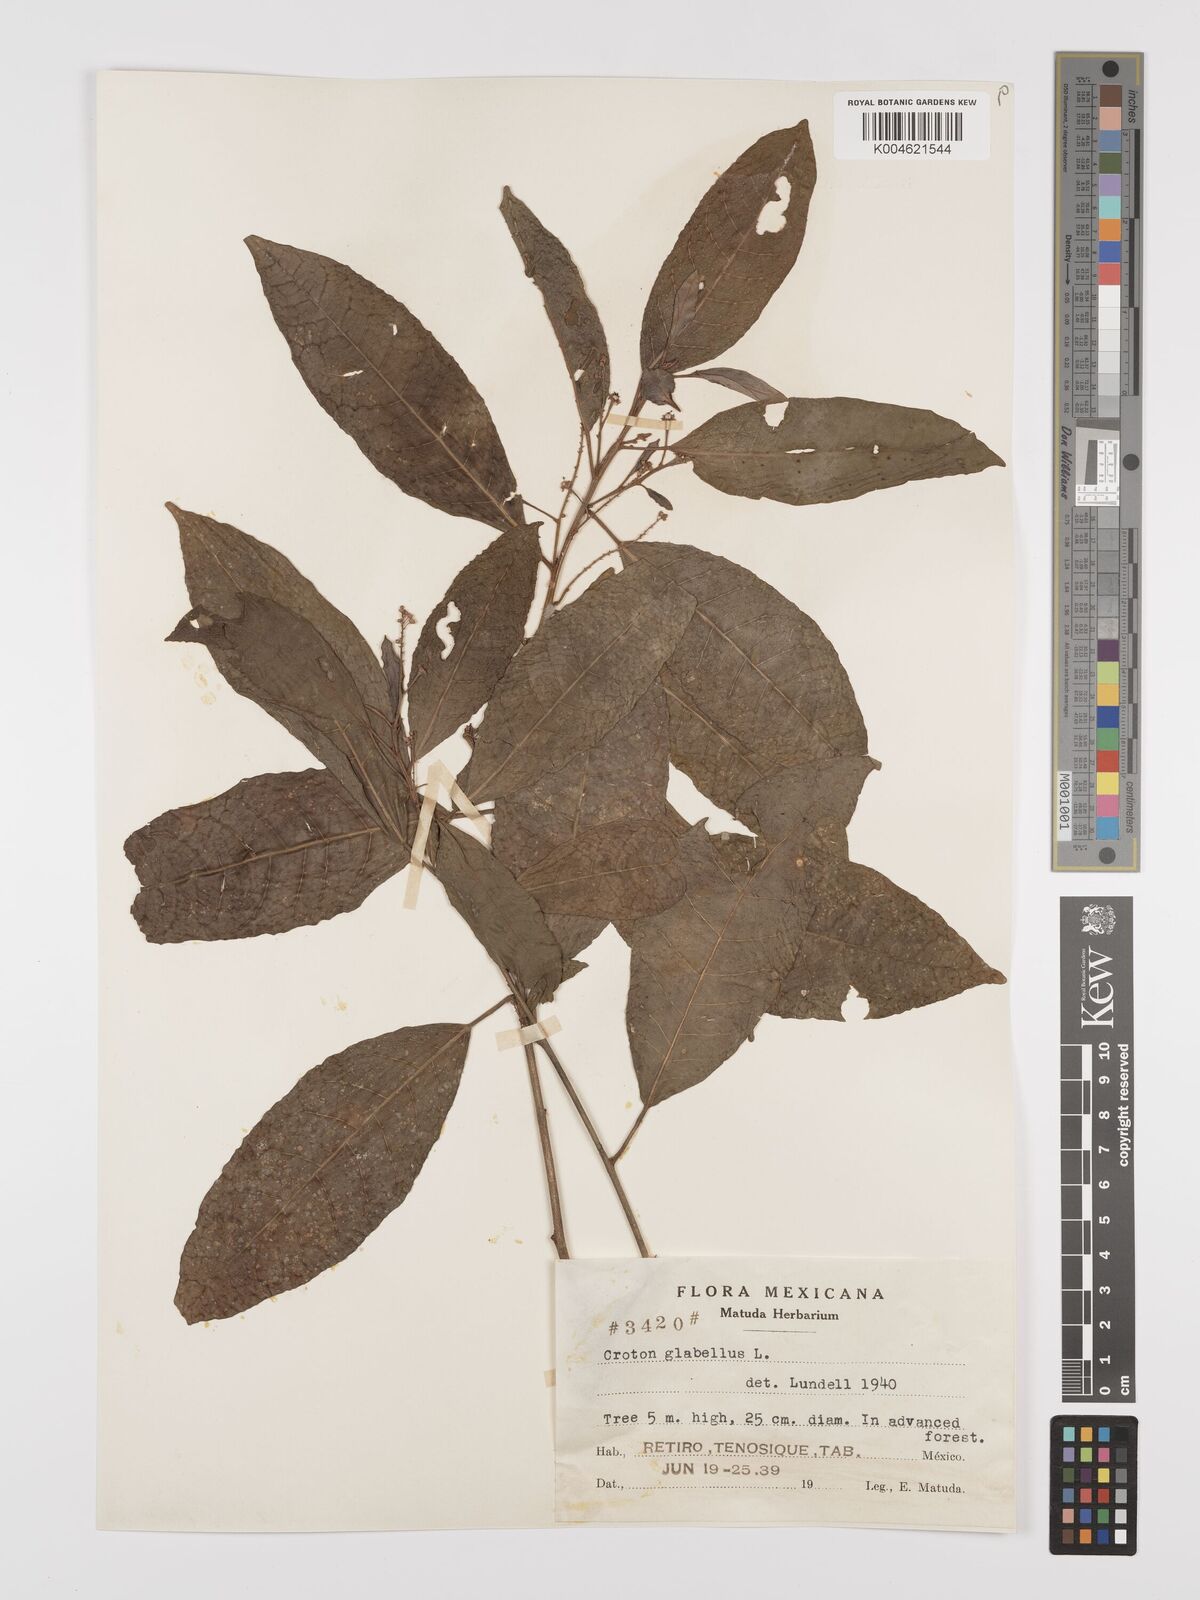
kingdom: Plantae
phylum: Tracheophyta
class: Magnoliopsida
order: Malpighiales
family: Euphorbiaceae
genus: Croton
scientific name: Croton glabellus
